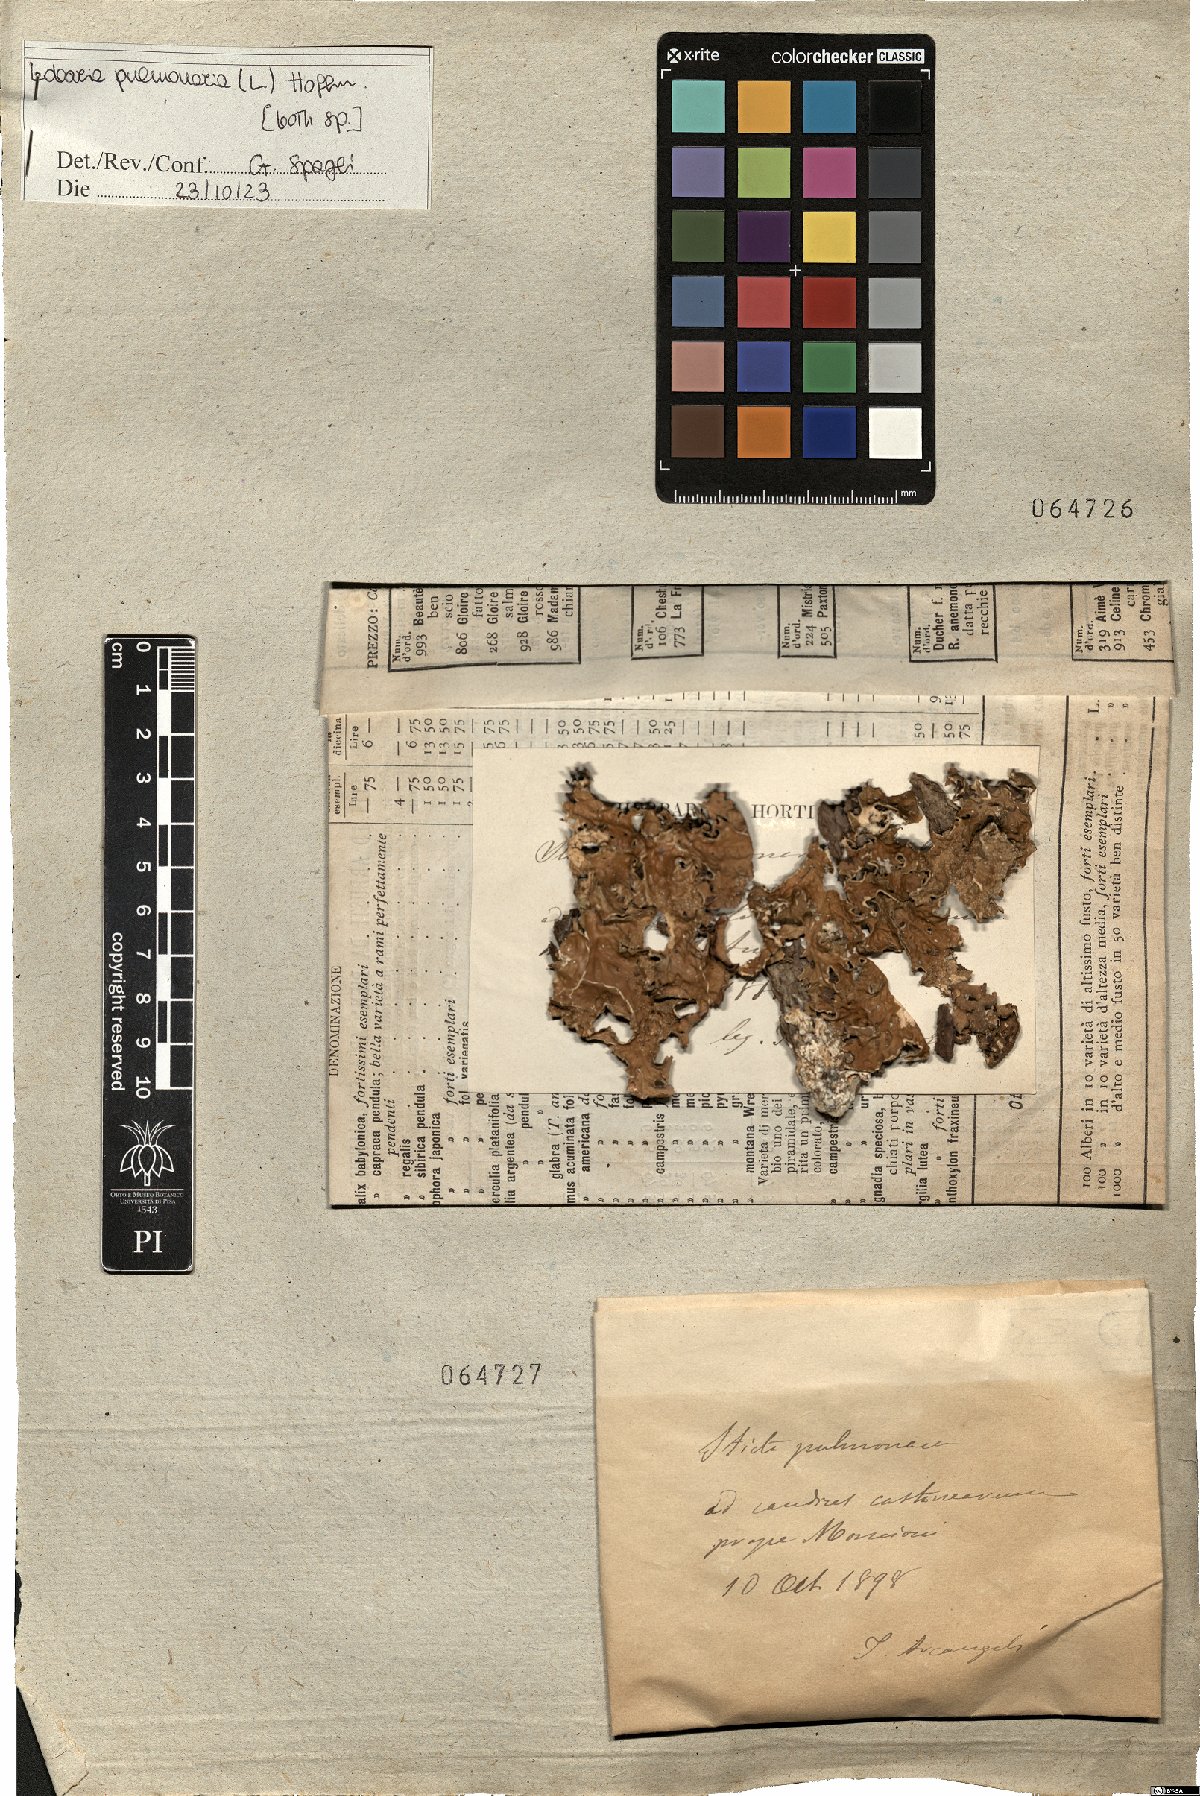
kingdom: Fungi
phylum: Ascomycota
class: Lecanoromycetes
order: Peltigerales
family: Lobariaceae
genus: Lobaria
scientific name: Lobaria pulmonaria
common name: Lungwort
